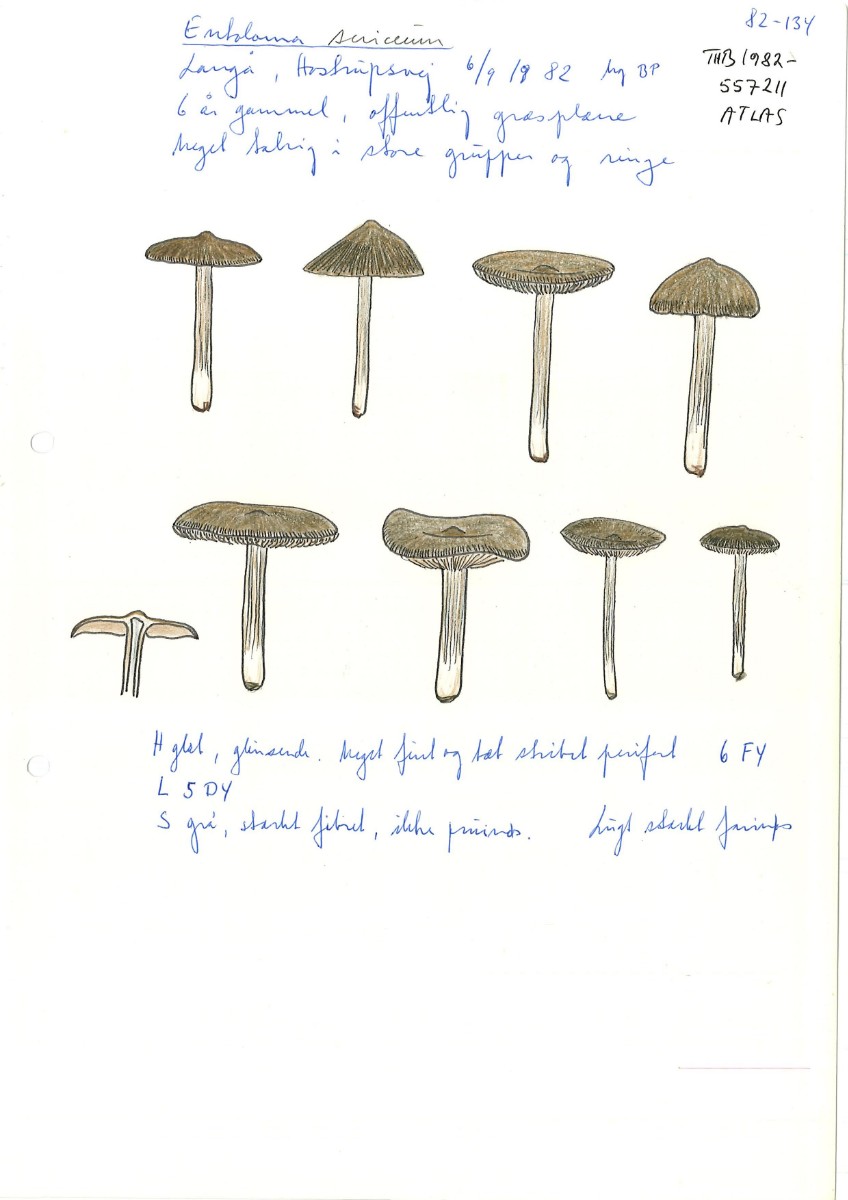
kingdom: Fungi
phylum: Basidiomycota
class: Agaricomycetes
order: Agaricales
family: Entolomataceae
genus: Entoloma
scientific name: Entoloma sericeum
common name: silkeglinsende rødblad
